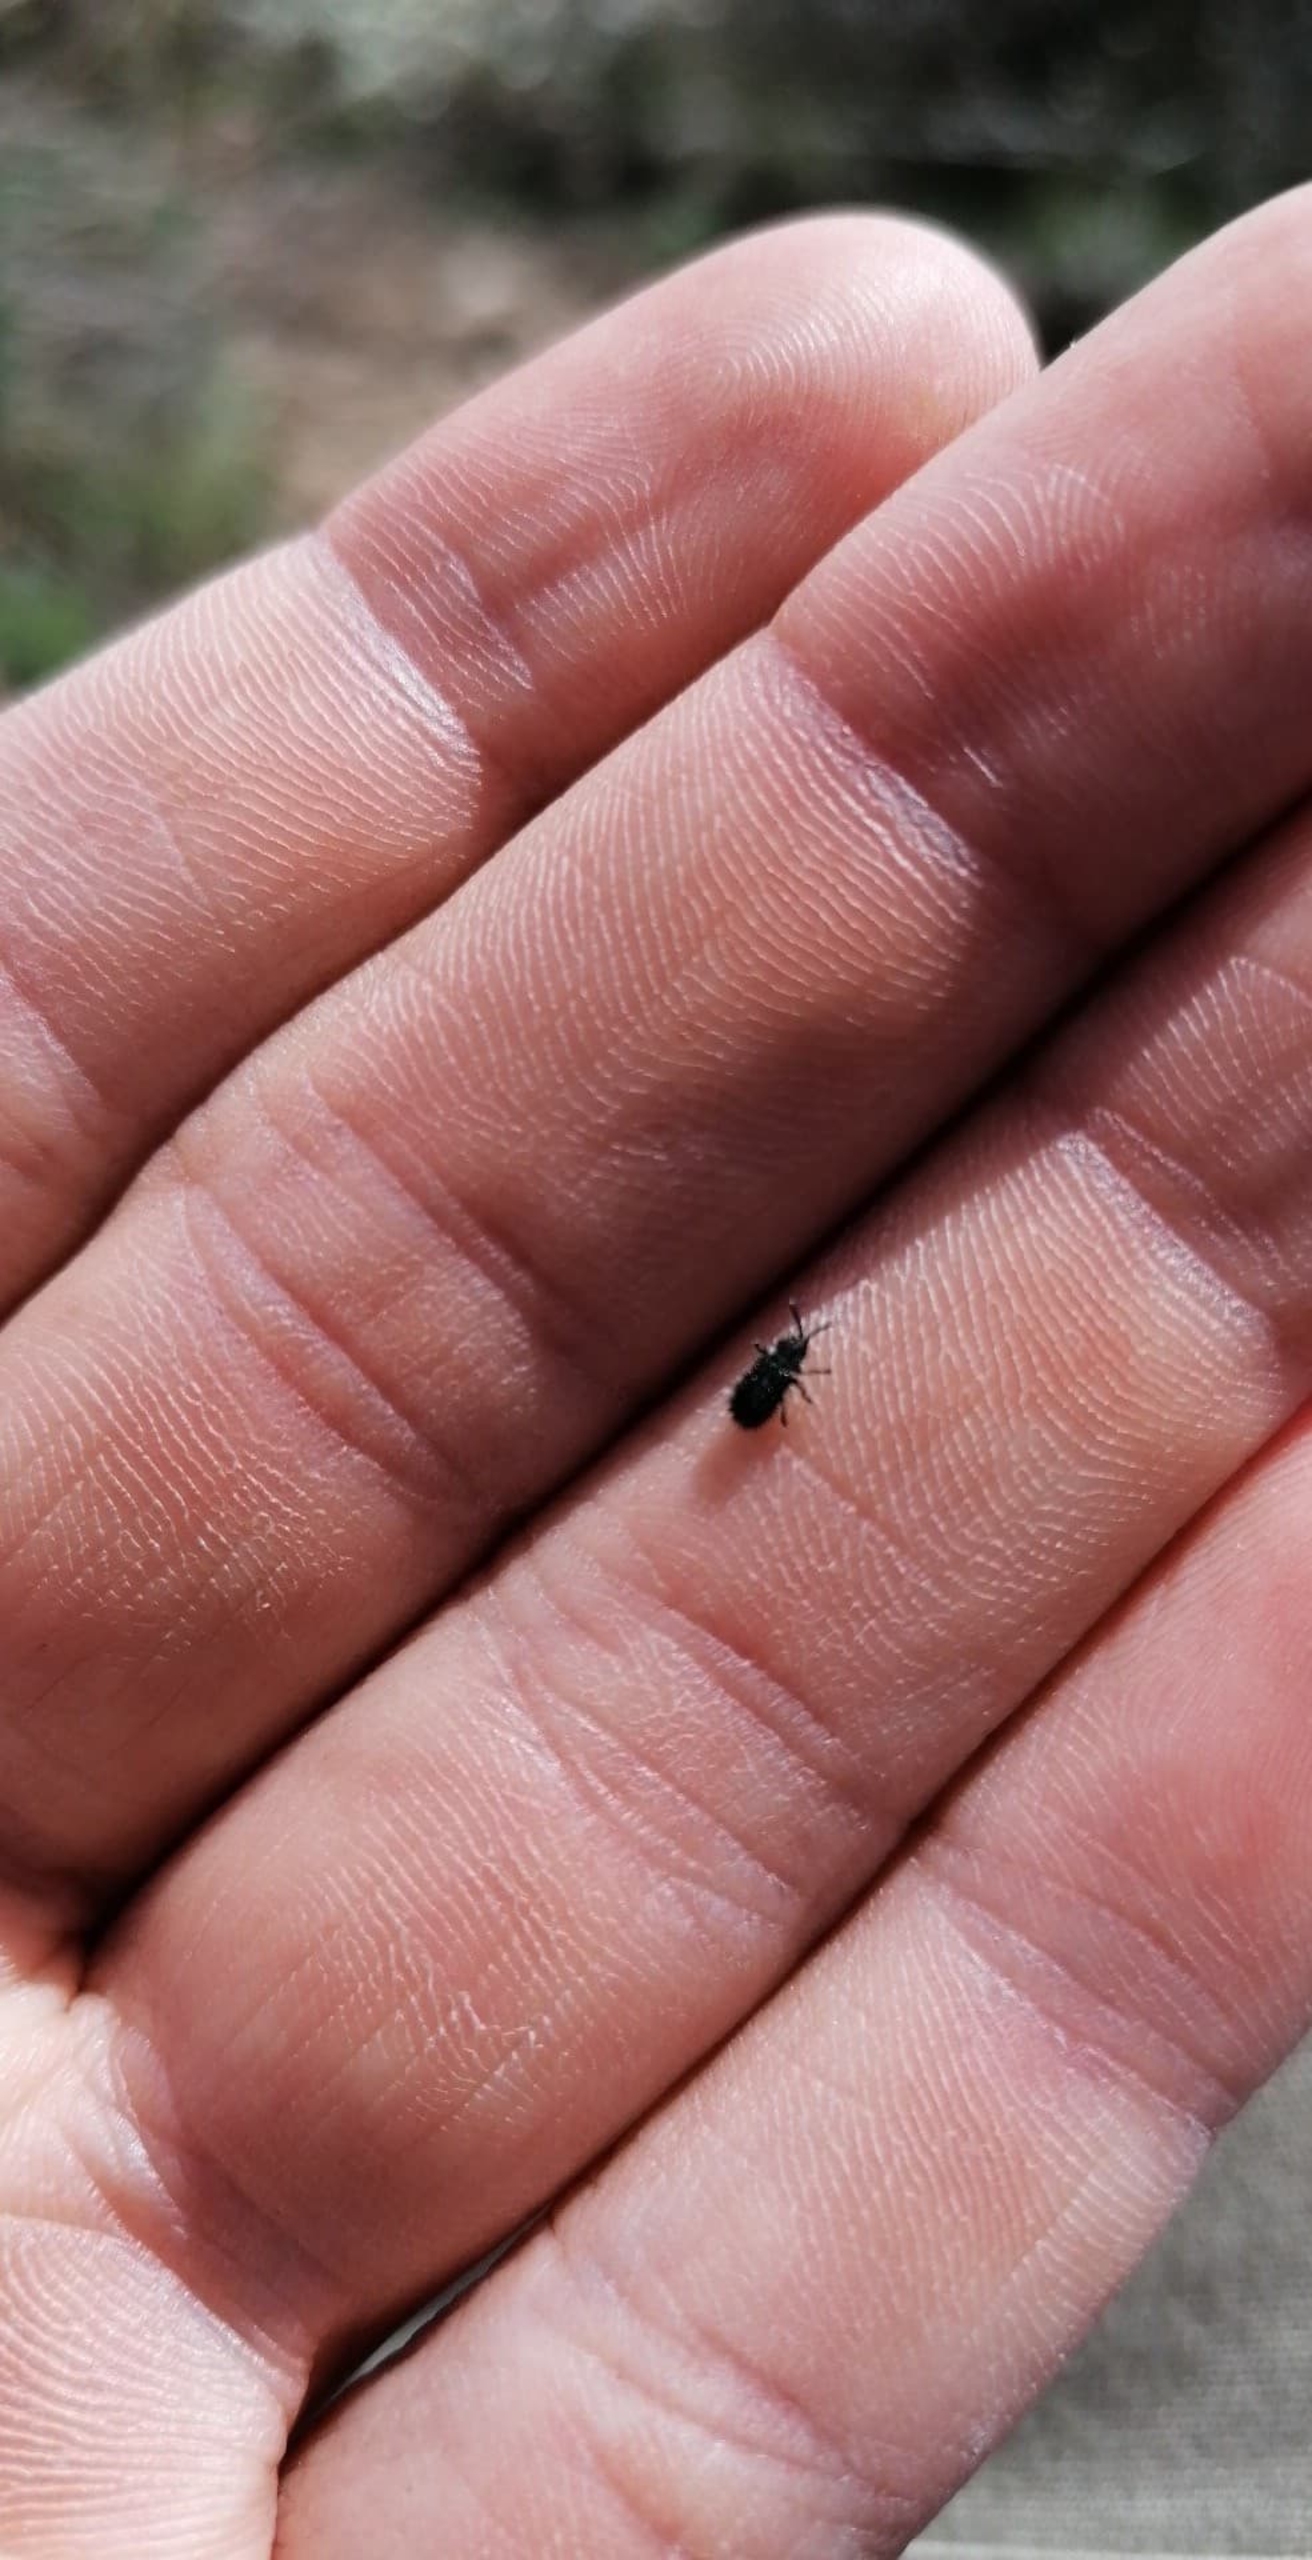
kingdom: Animalia
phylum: Arthropoda
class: Insecta
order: Coleoptera
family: Chrysomelidae
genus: Hispa
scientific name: Hispa atra
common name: Pindsvinebille
